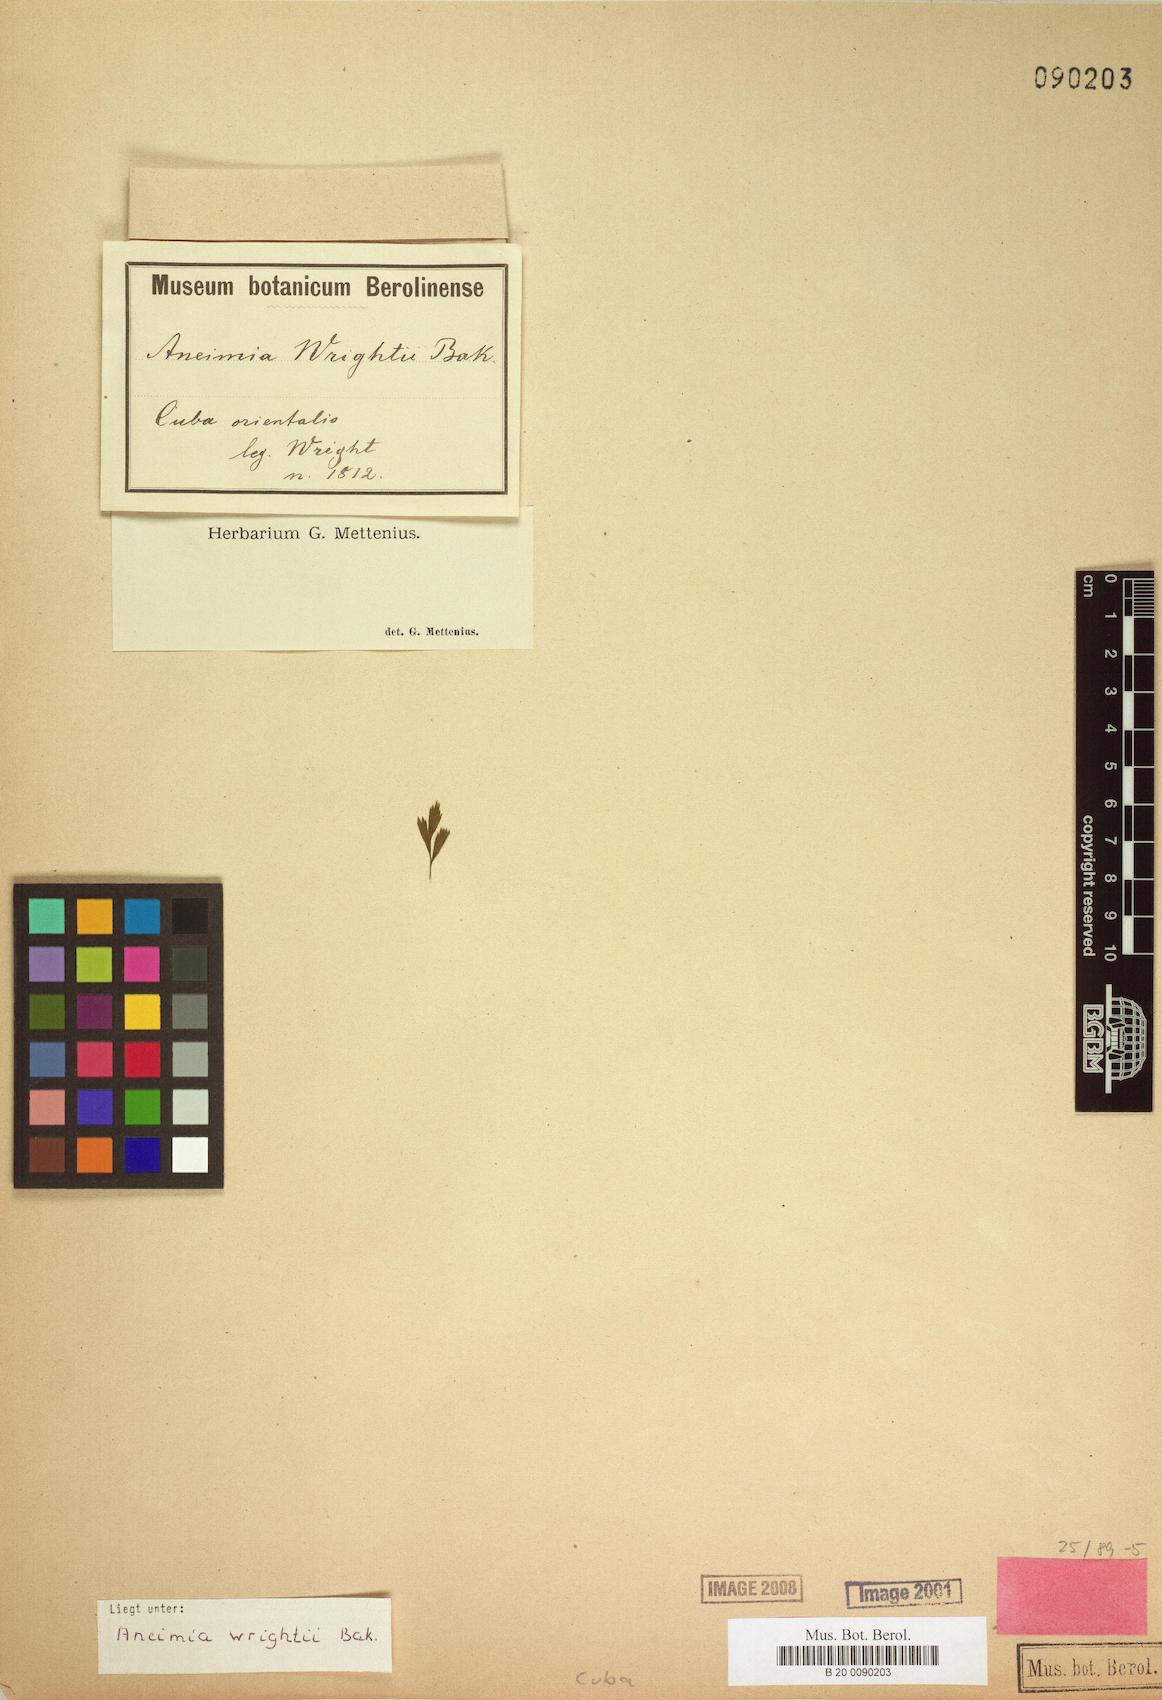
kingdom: Plantae
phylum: Tracheophyta
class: Polypodiopsida
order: Schizaeales
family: Anemiaceae
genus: Anemia
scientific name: Anemia wrightii
